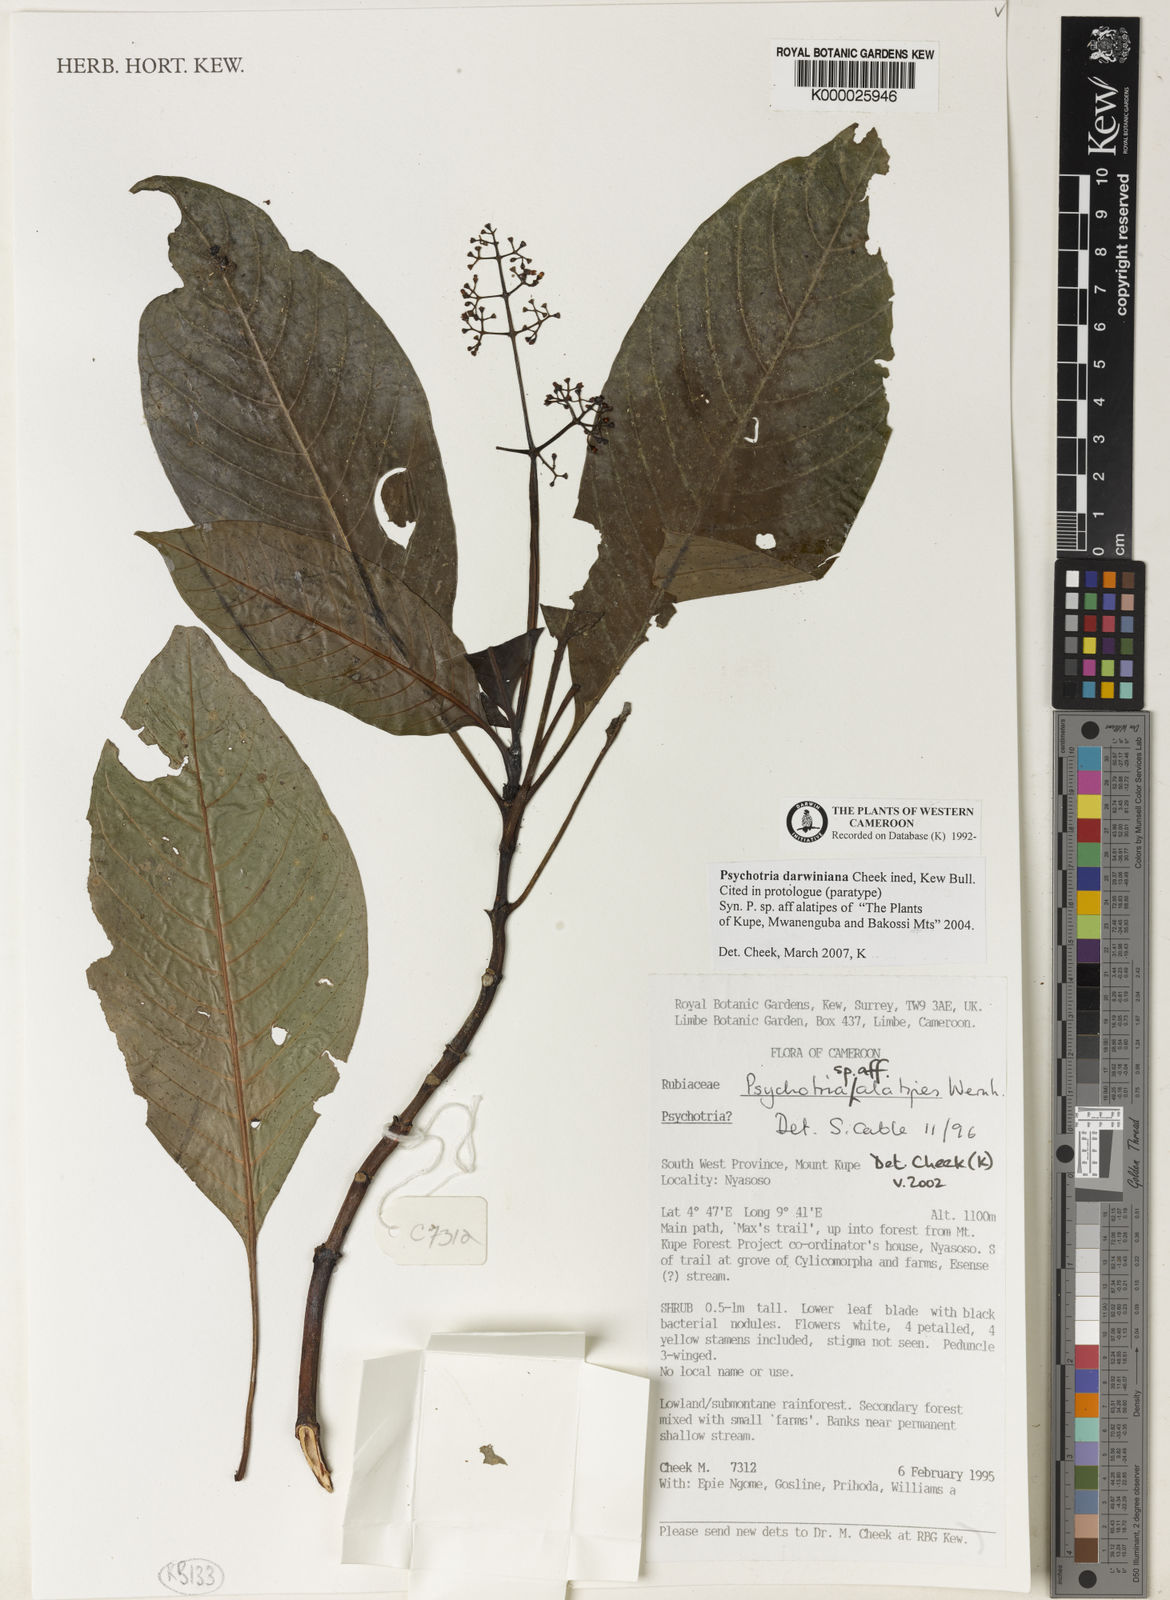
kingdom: Plantae
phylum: Tracheophyta
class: Magnoliopsida
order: Gentianales
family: Rubiaceae
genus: Psychotria
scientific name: Psychotria darwiniana
